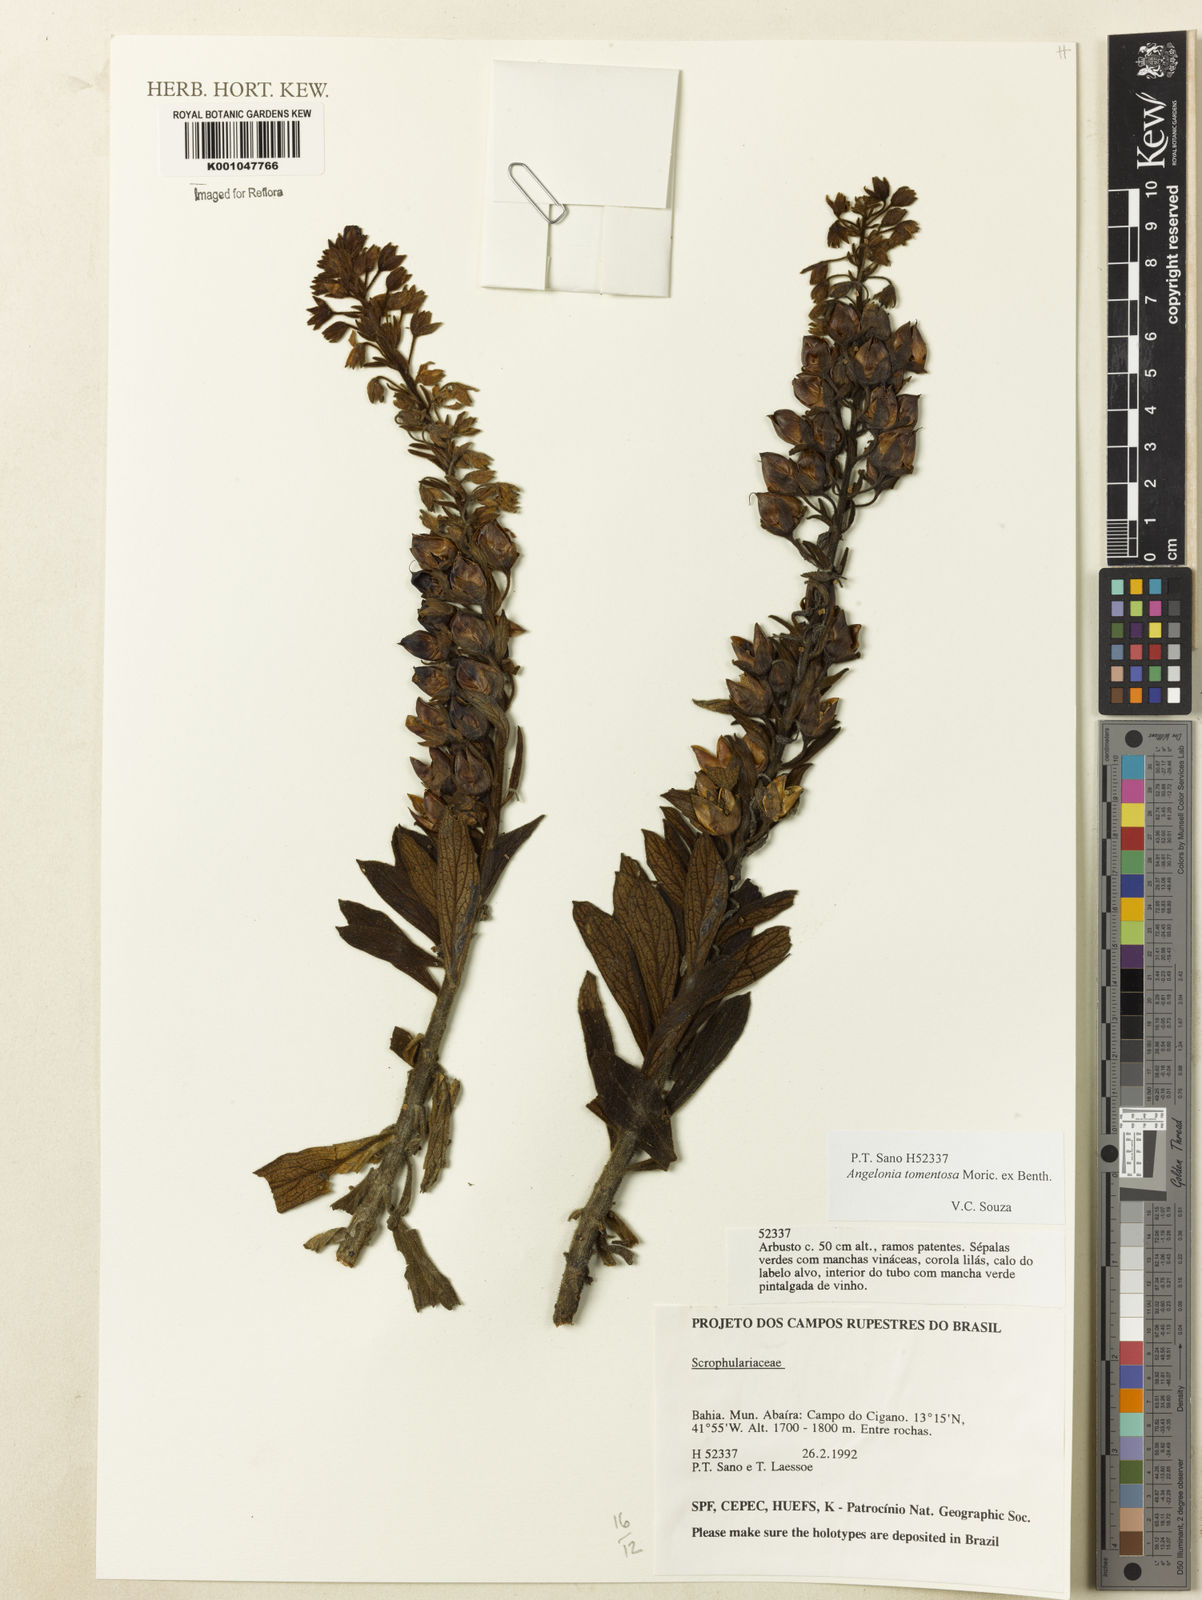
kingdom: Plantae
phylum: Tracheophyta
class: Magnoliopsida
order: Lamiales
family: Plantaginaceae
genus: Angelonia
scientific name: Angelonia tomentosa
